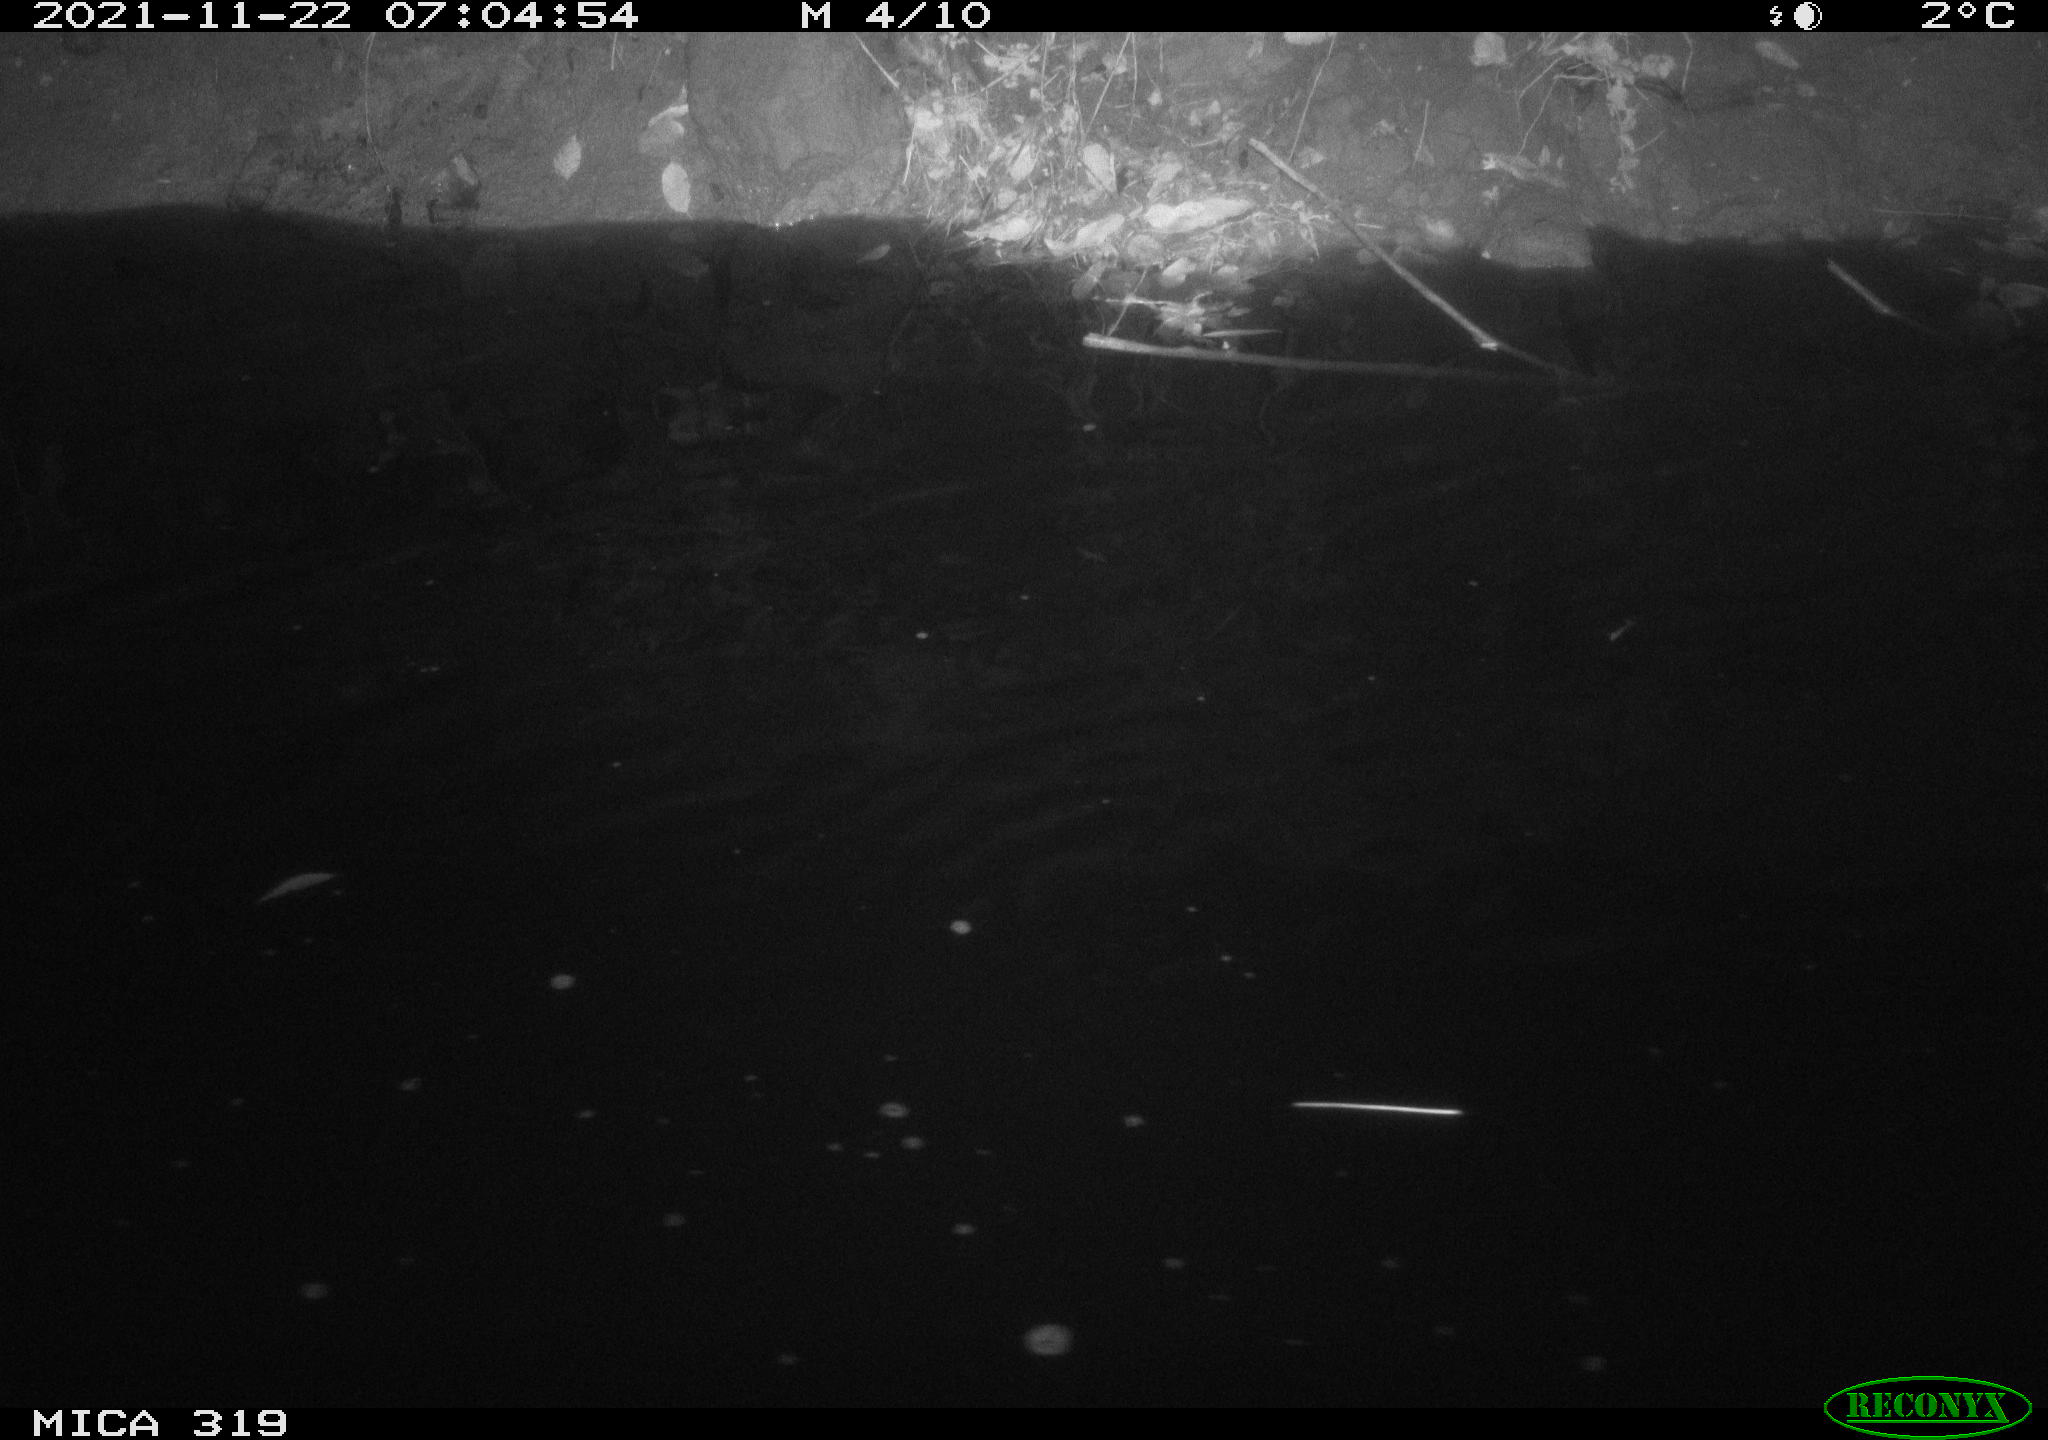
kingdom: Animalia
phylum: Chordata
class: Aves
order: Gruiformes
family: Rallidae
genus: Gallinula
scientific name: Gallinula chloropus
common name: Common moorhen
